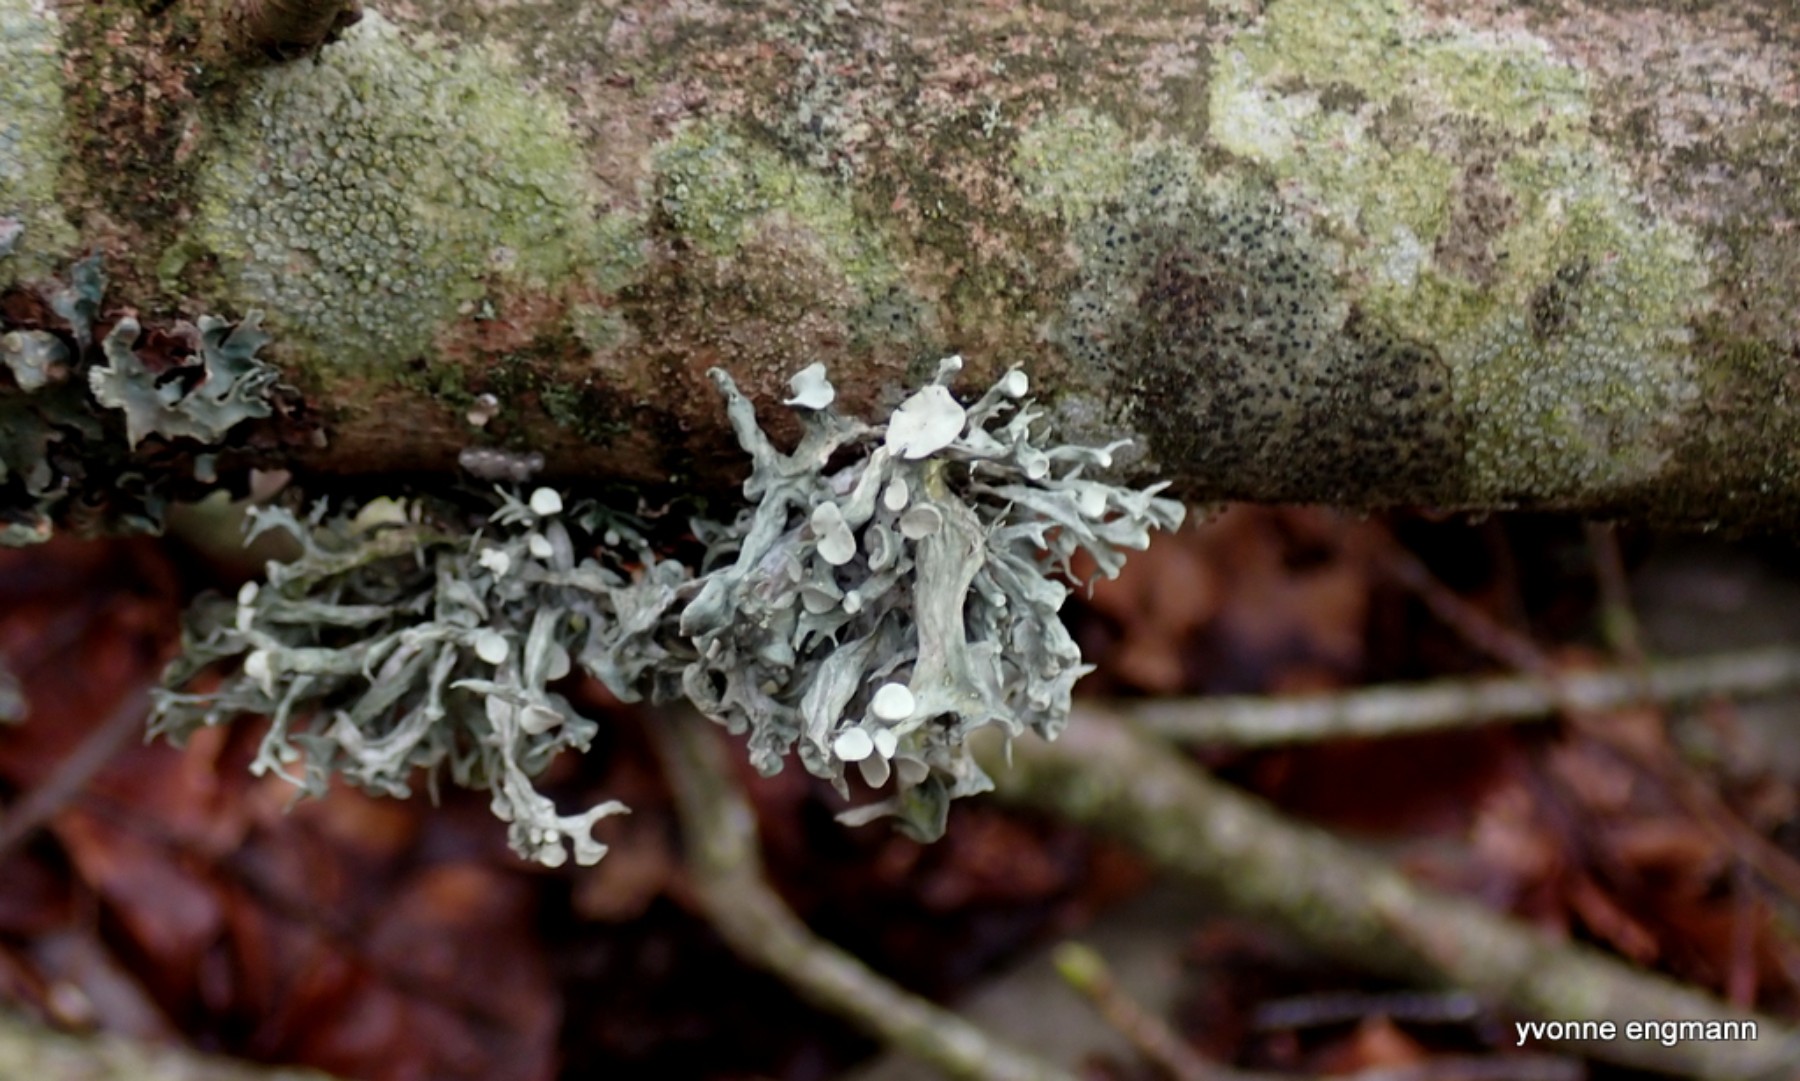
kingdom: Fungi
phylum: Ascomycota
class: Lecanoromycetes
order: Lecanorales
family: Ramalinaceae
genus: Ramalina
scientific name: Ramalina fastigiata
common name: tue-grenlav
